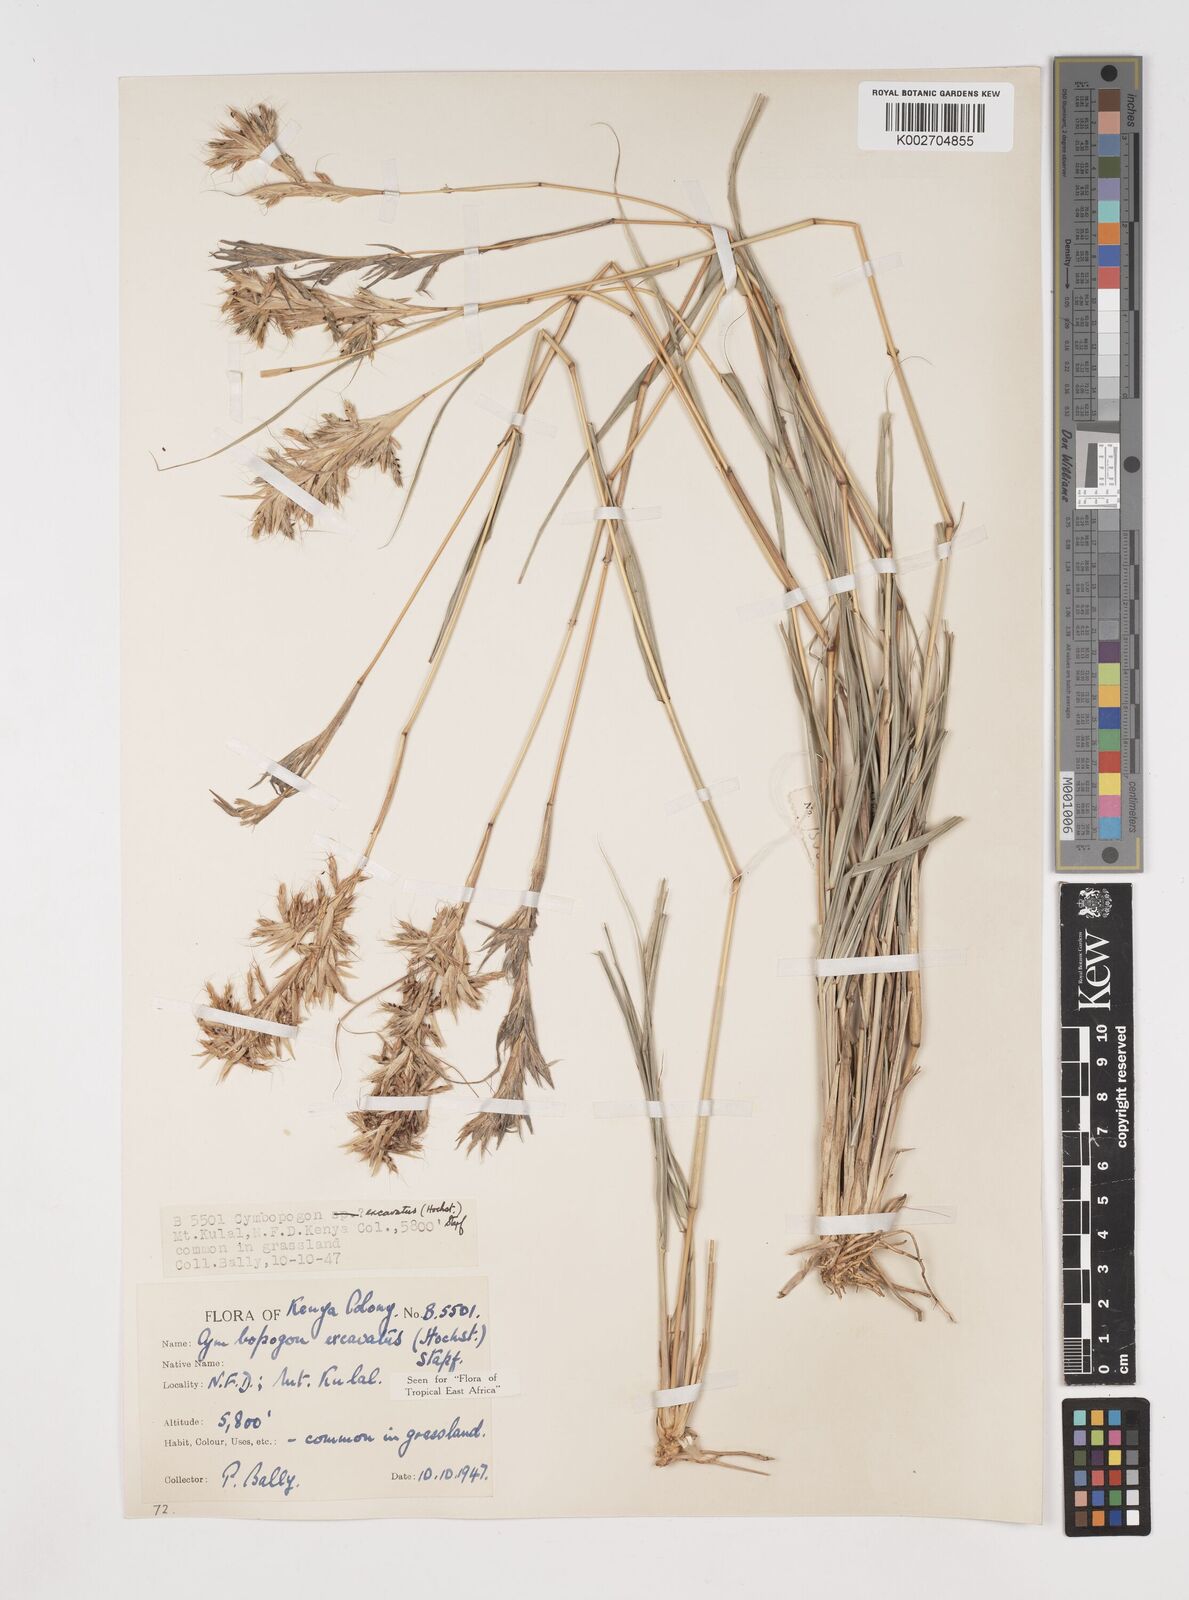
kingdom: Plantae
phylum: Tracheophyta
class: Liliopsida
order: Poales
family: Poaceae
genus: Cymbopogon
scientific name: Cymbopogon caesius
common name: Kachi grass
